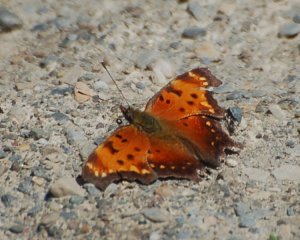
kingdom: Animalia
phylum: Arthropoda
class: Insecta
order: Lepidoptera
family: Nymphalidae
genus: Polygonia
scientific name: Polygonia progne
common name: Gray Comma
